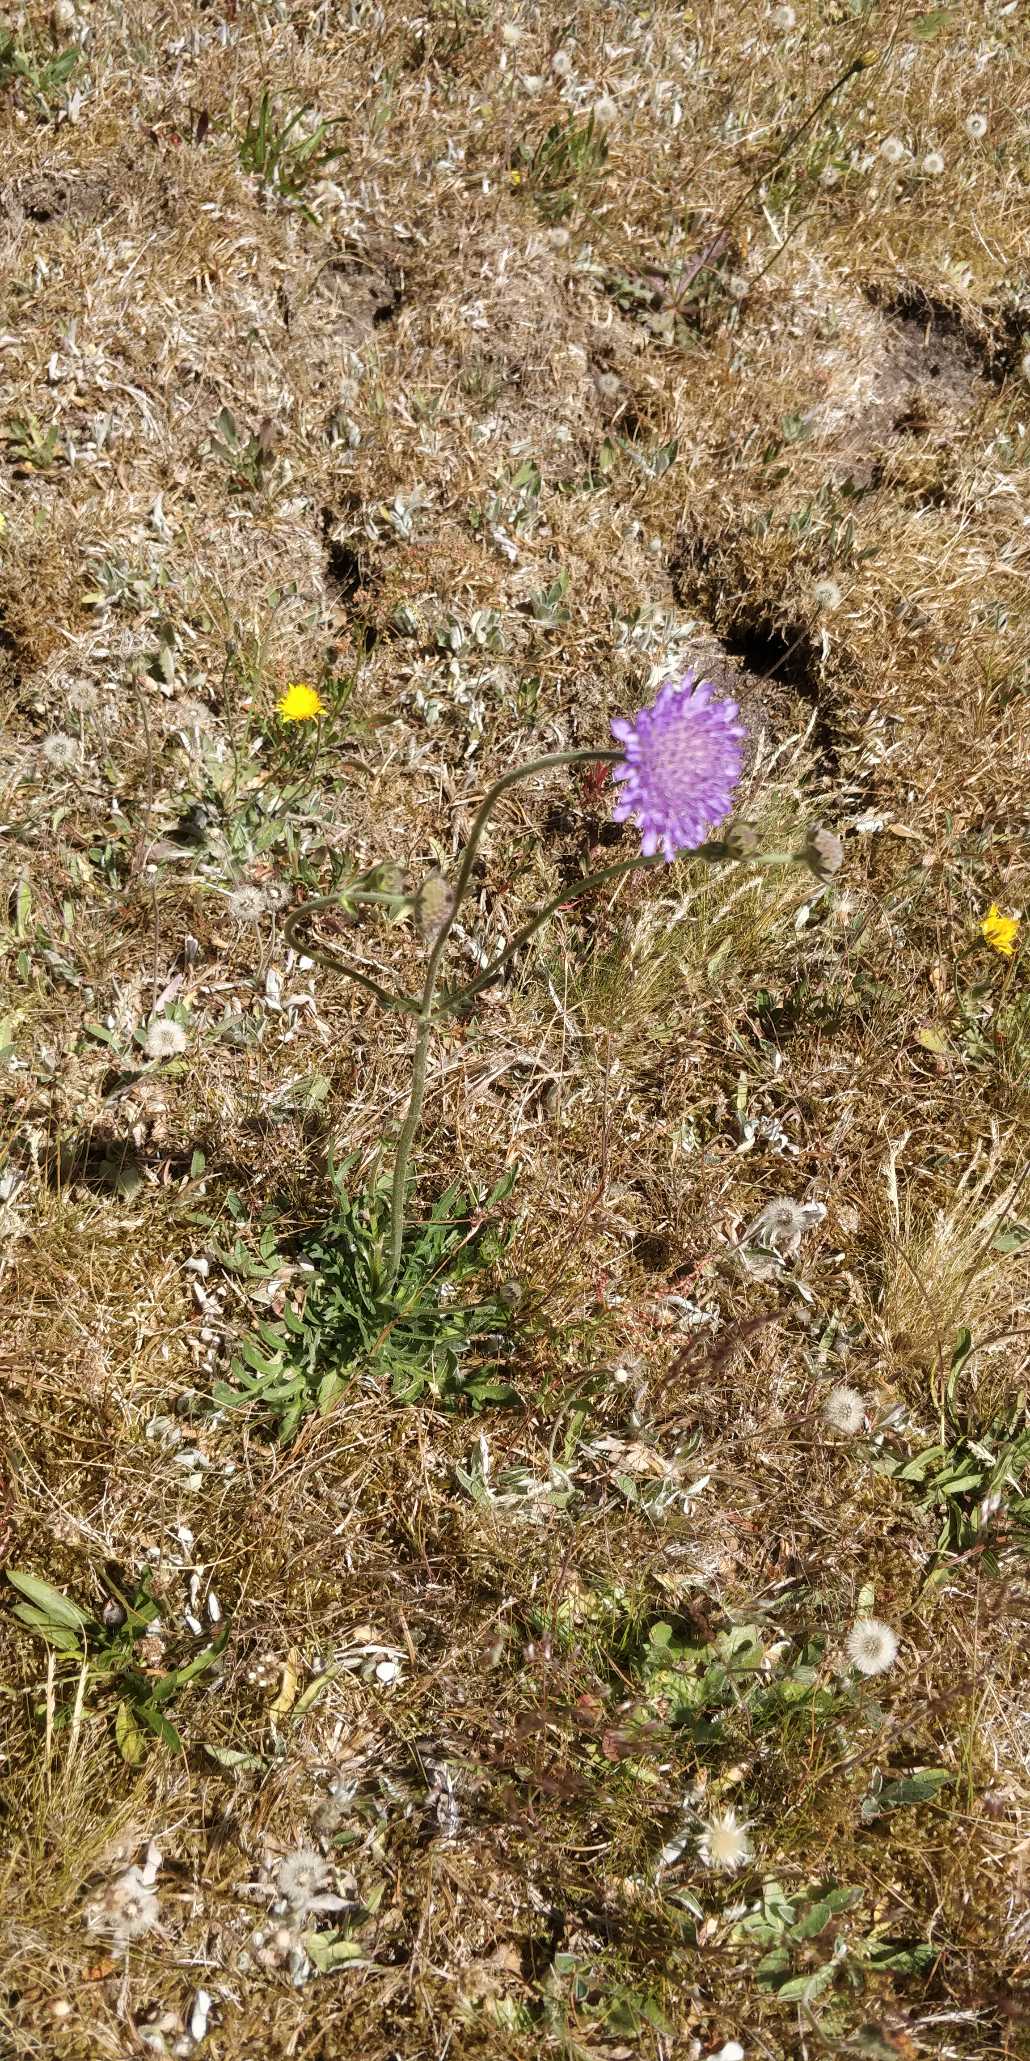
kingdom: Plantae
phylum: Tracheophyta
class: Magnoliopsida
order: Dipsacales
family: Caprifoliaceae
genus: Knautia
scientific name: Knautia arvensis
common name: Blåhat
